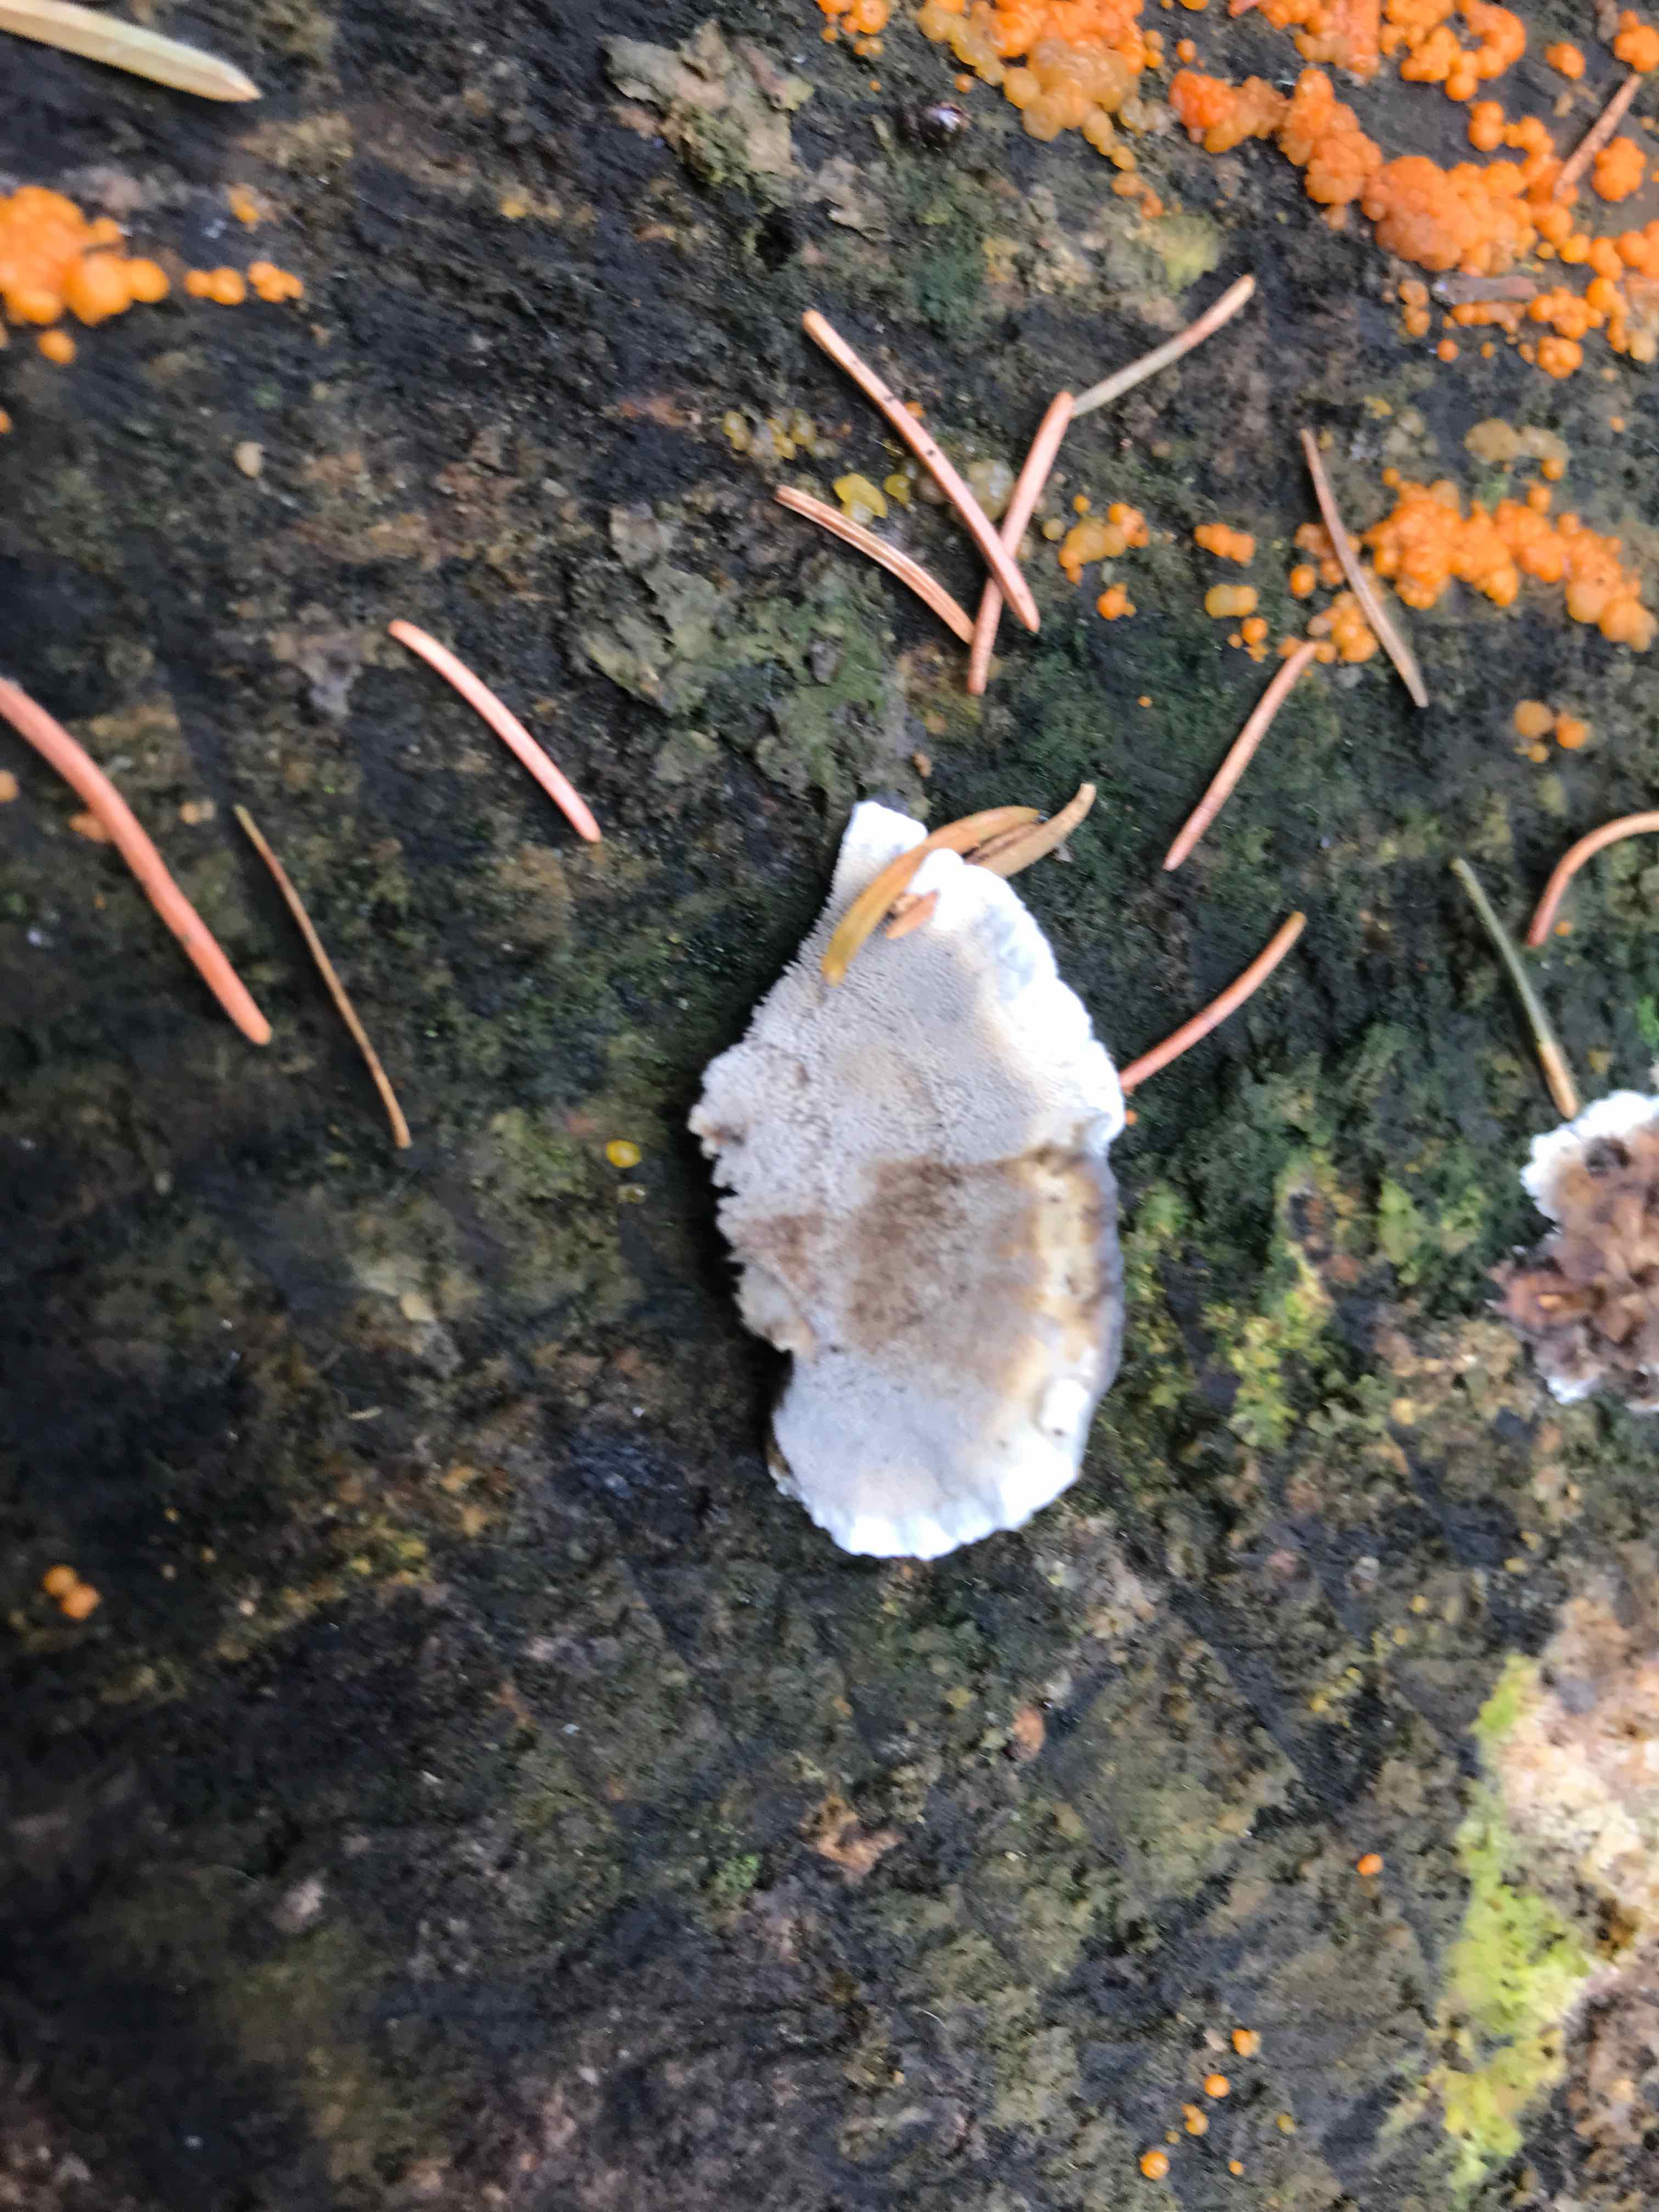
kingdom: Fungi
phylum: Basidiomycota
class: Agaricomycetes
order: Polyporales
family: Phanerochaetaceae
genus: Bjerkandera
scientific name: Bjerkandera adusta
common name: sveden sodporesvamp
